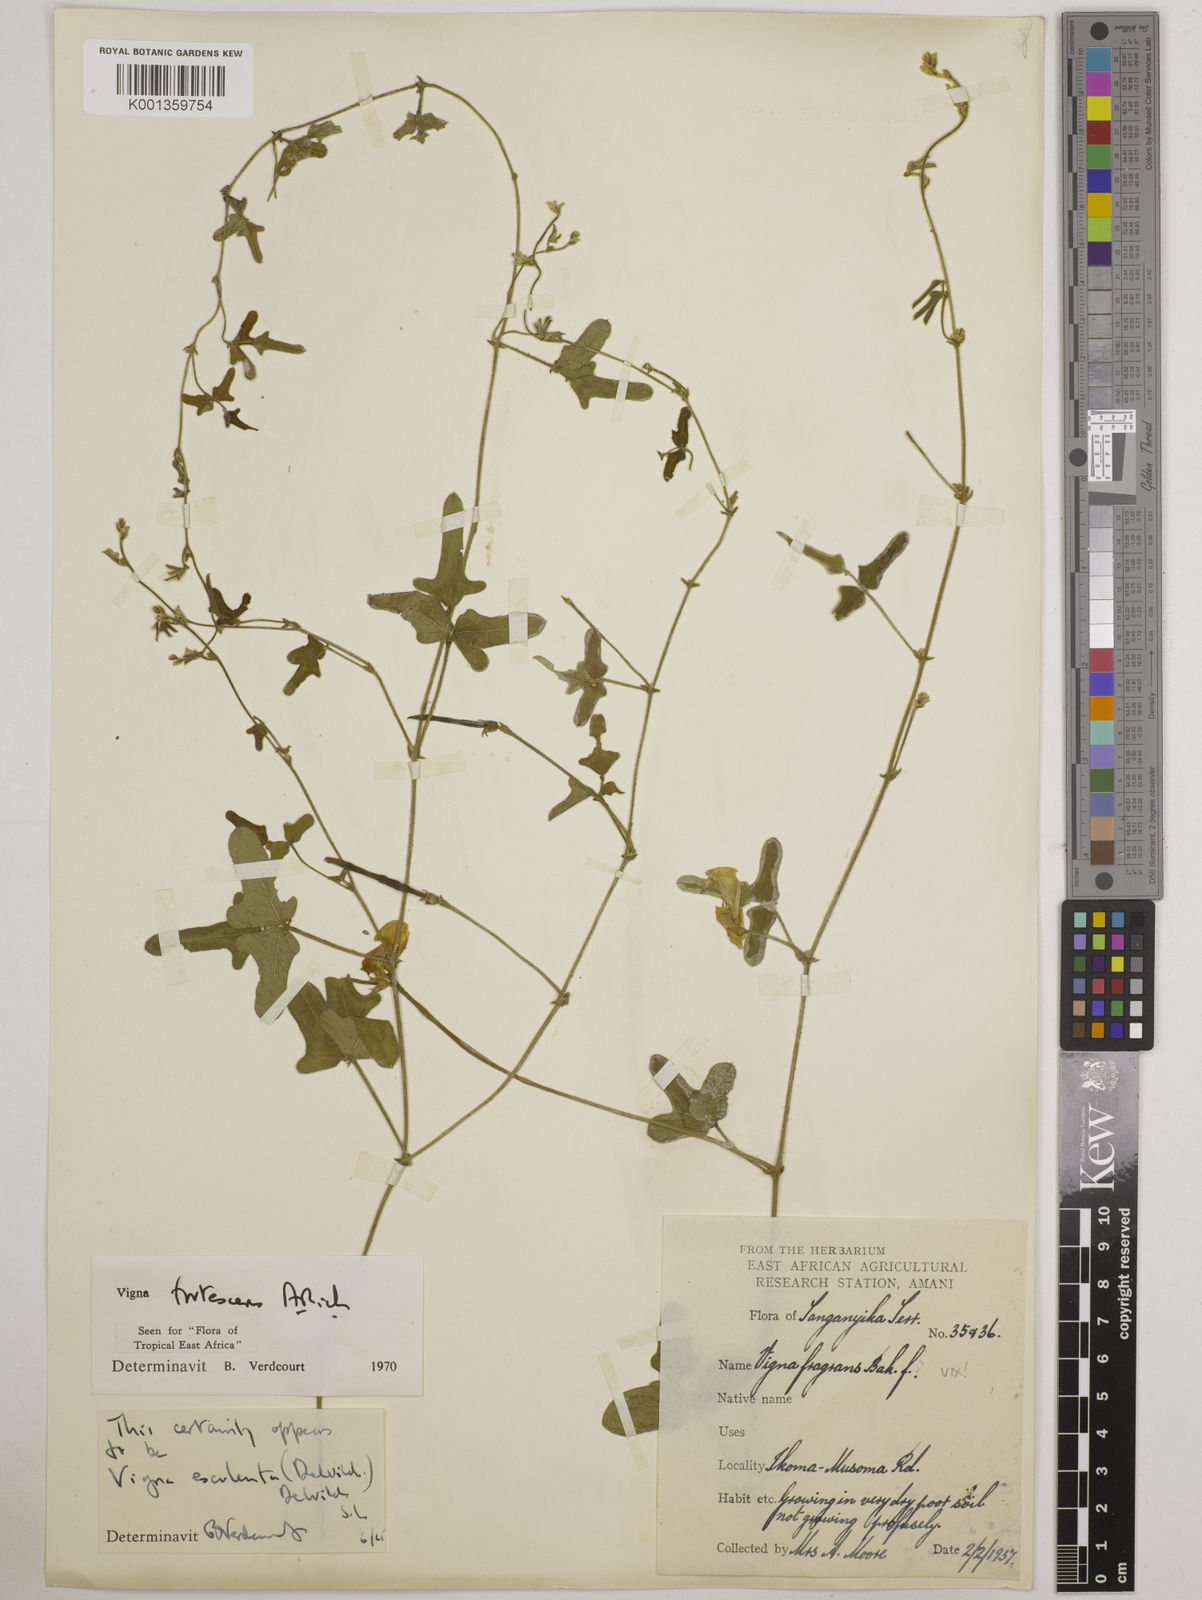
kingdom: Plantae
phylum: Tracheophyta
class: Magnoliopsida
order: Fabales
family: Fabaceae
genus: Vigna
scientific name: Vigna frutescens
